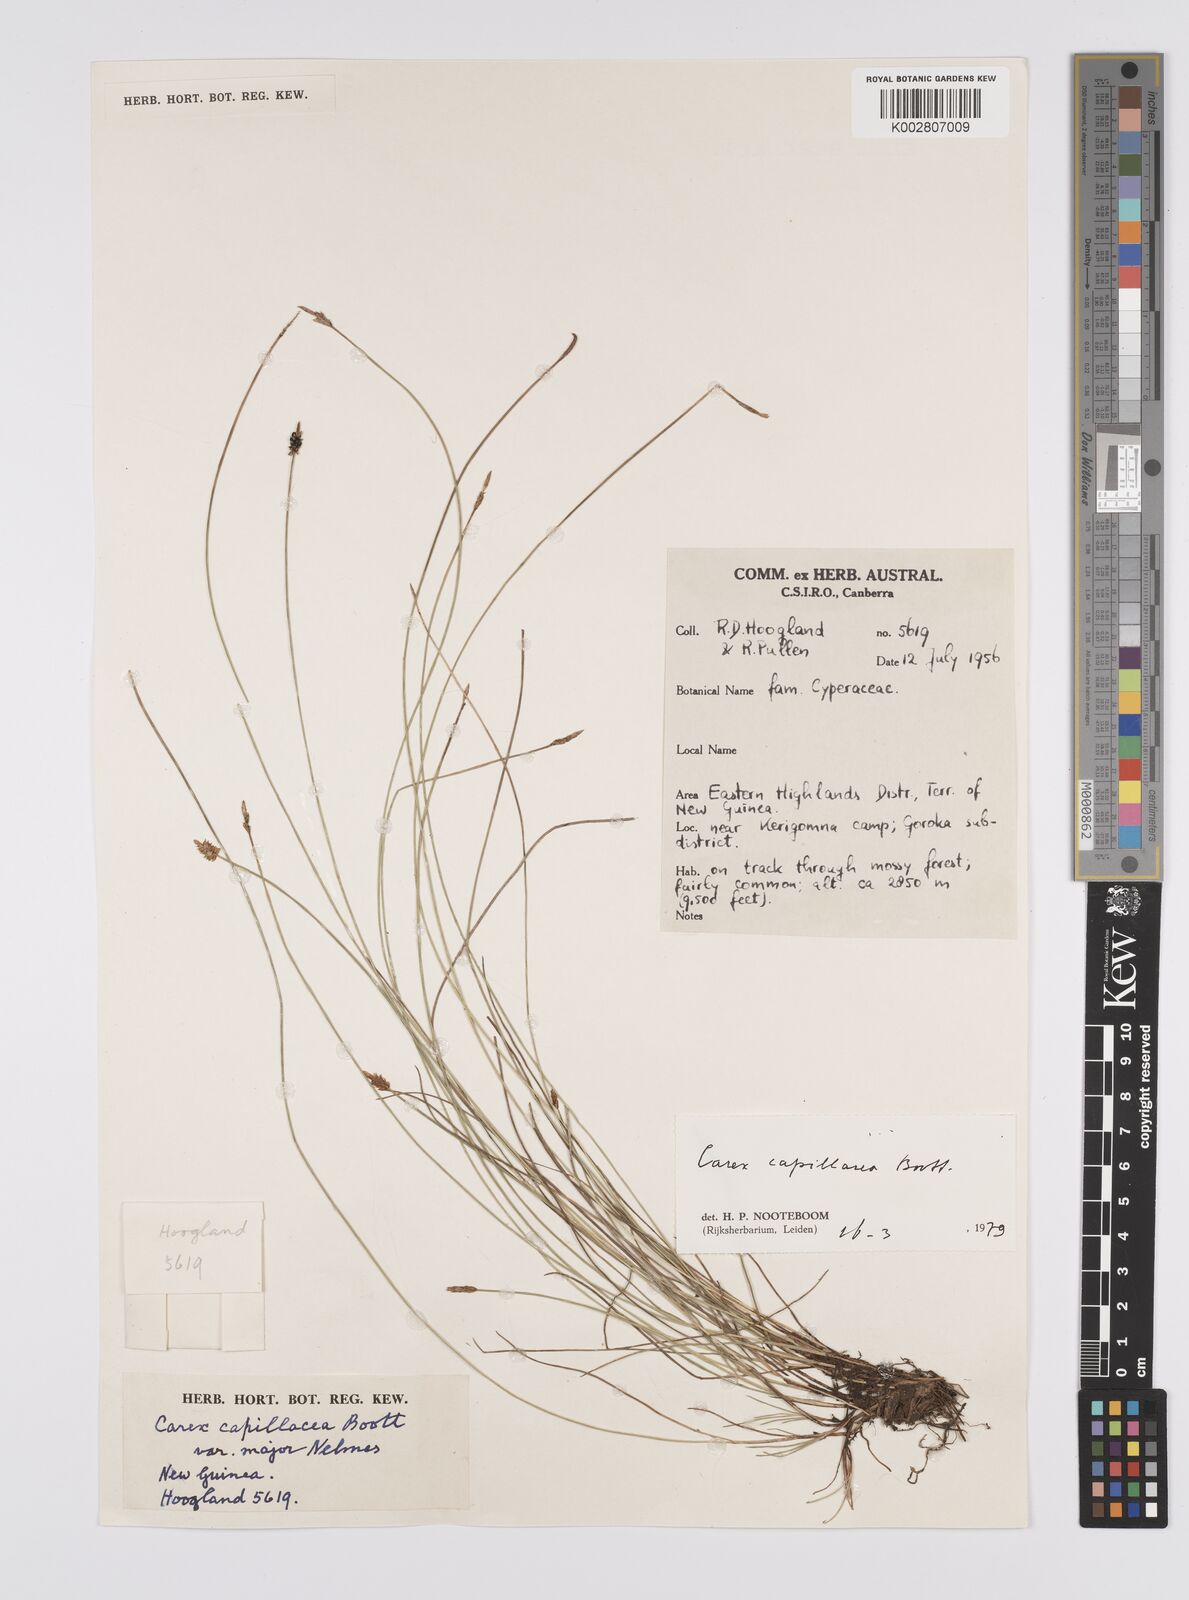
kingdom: Plantae
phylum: Tracheophyta
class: Liliopsida
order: Poales
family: Cyperaceae
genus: Carex
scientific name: Carex capillacea
